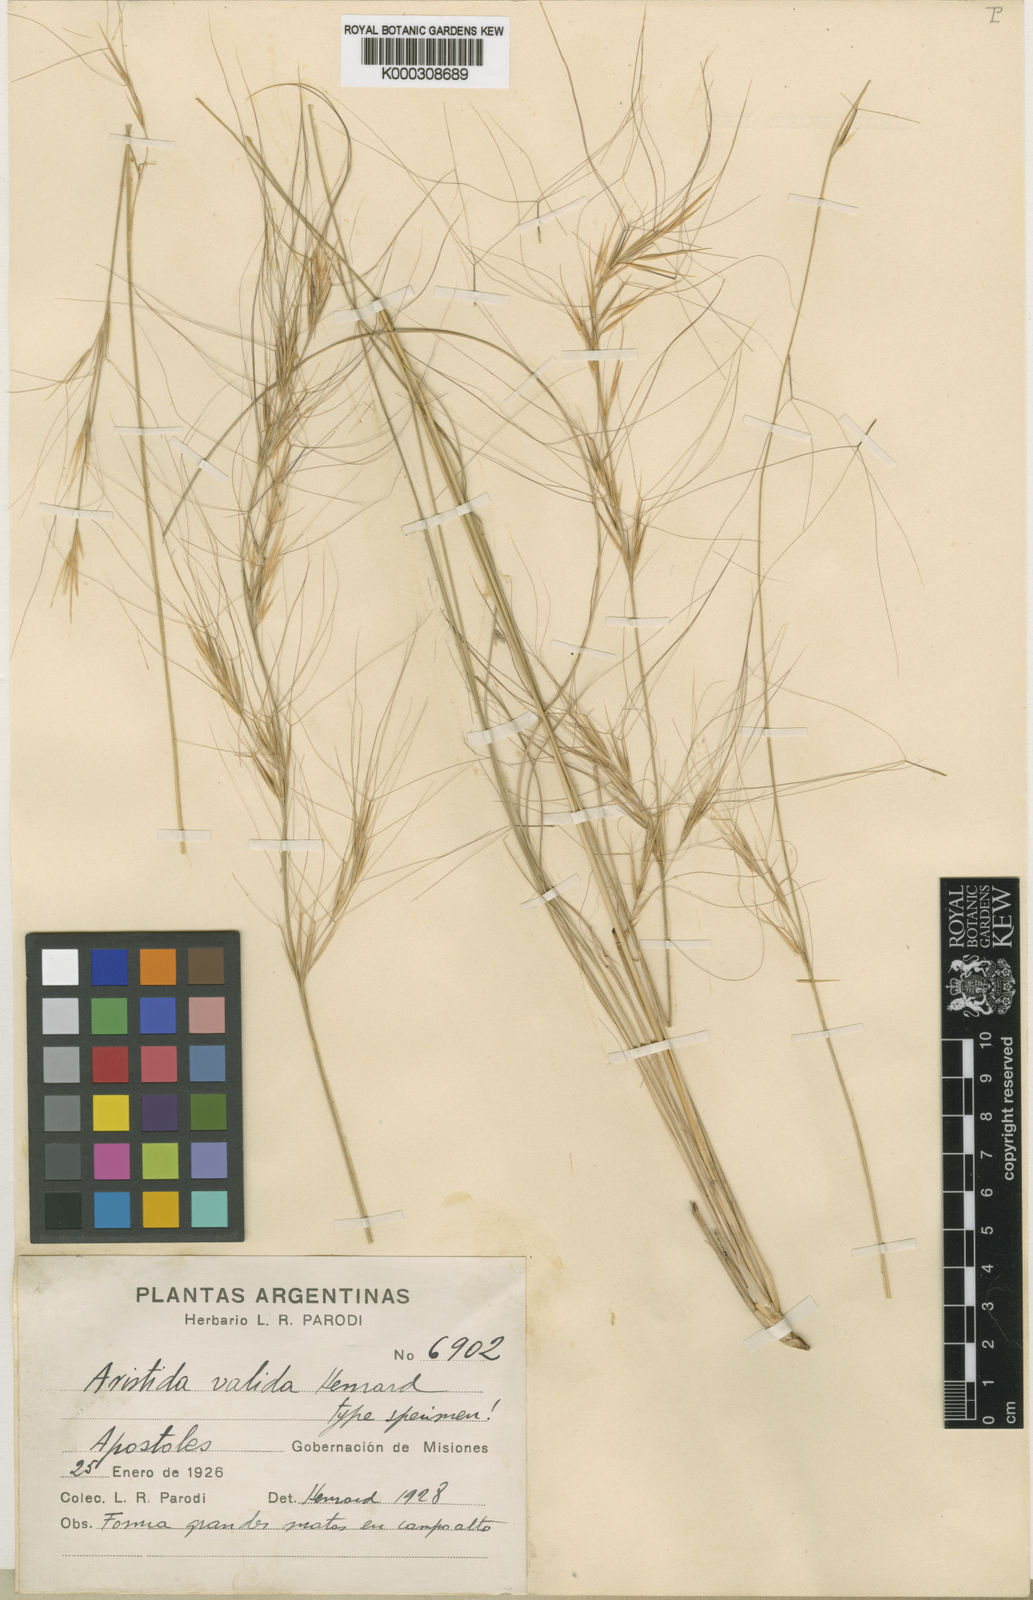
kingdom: Plantae
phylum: Tracheophyta
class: Liliopsida
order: Poales
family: Poaceae
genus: Aristida
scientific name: Aristida valida
